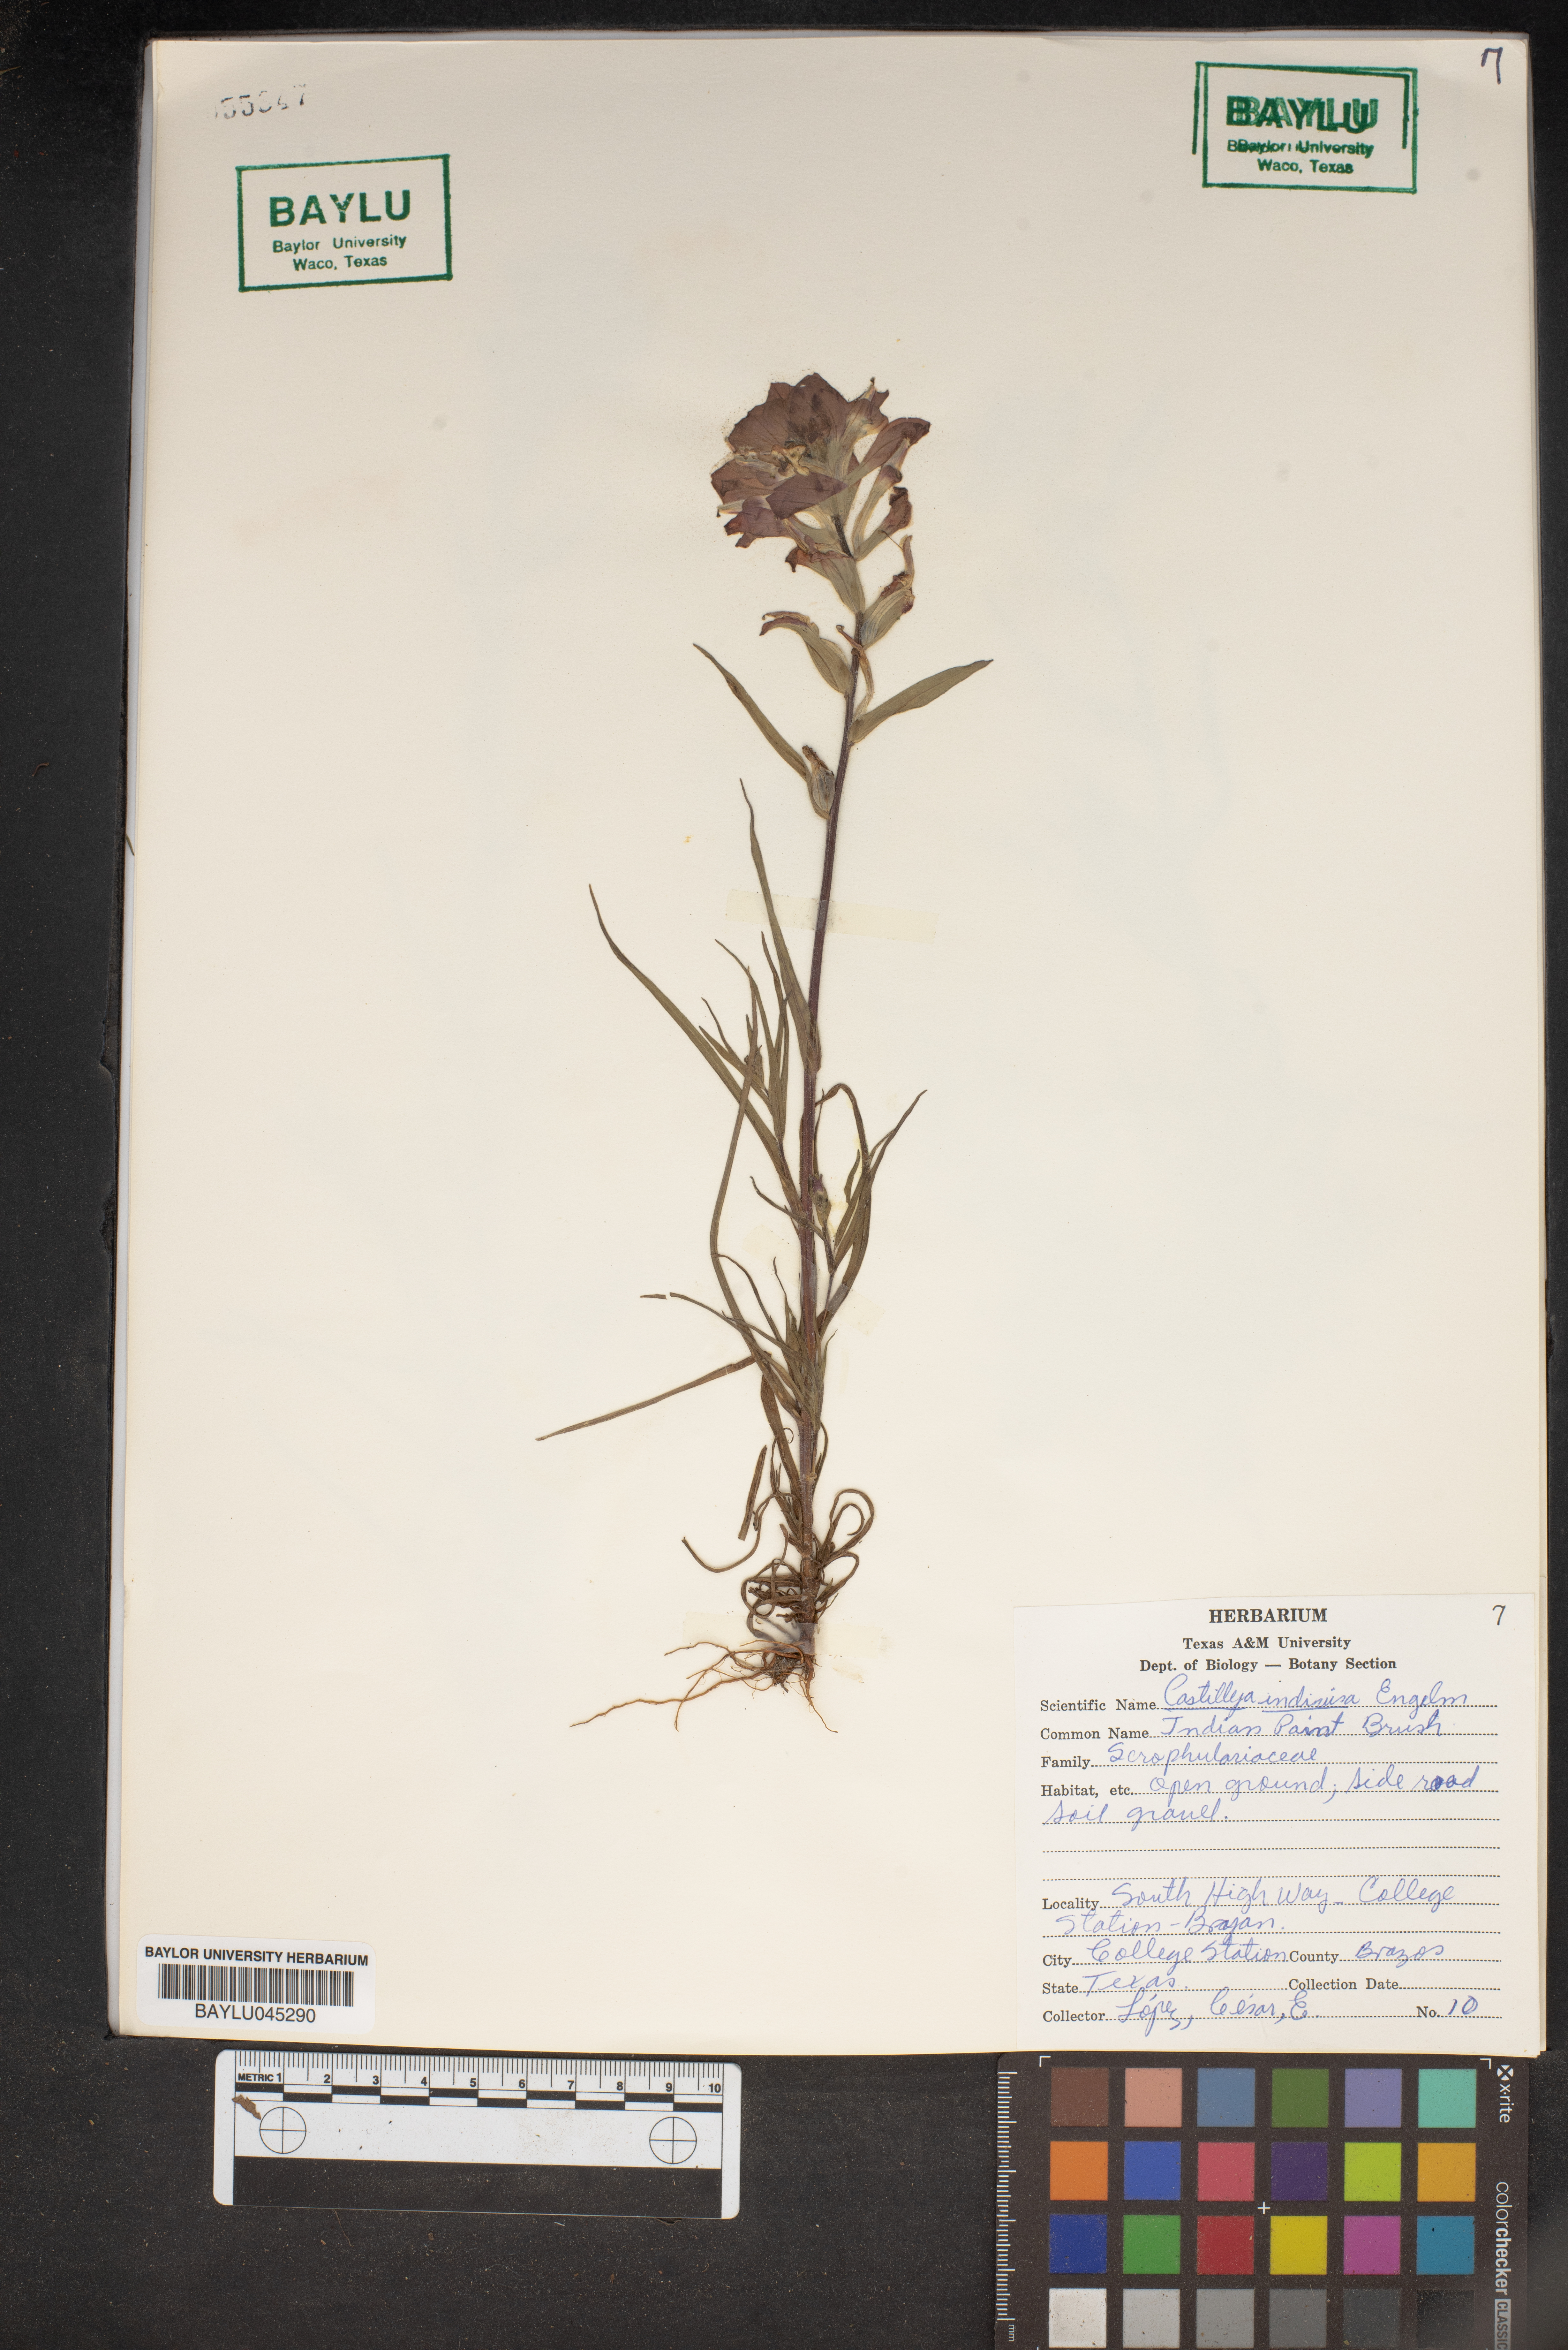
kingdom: Plantae
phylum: Tracheophyta
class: Magnoliopsida
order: Lamiales
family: Orobanchaceae
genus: Castilleja
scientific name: Castilleja indivisa
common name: Texas paintbrush
